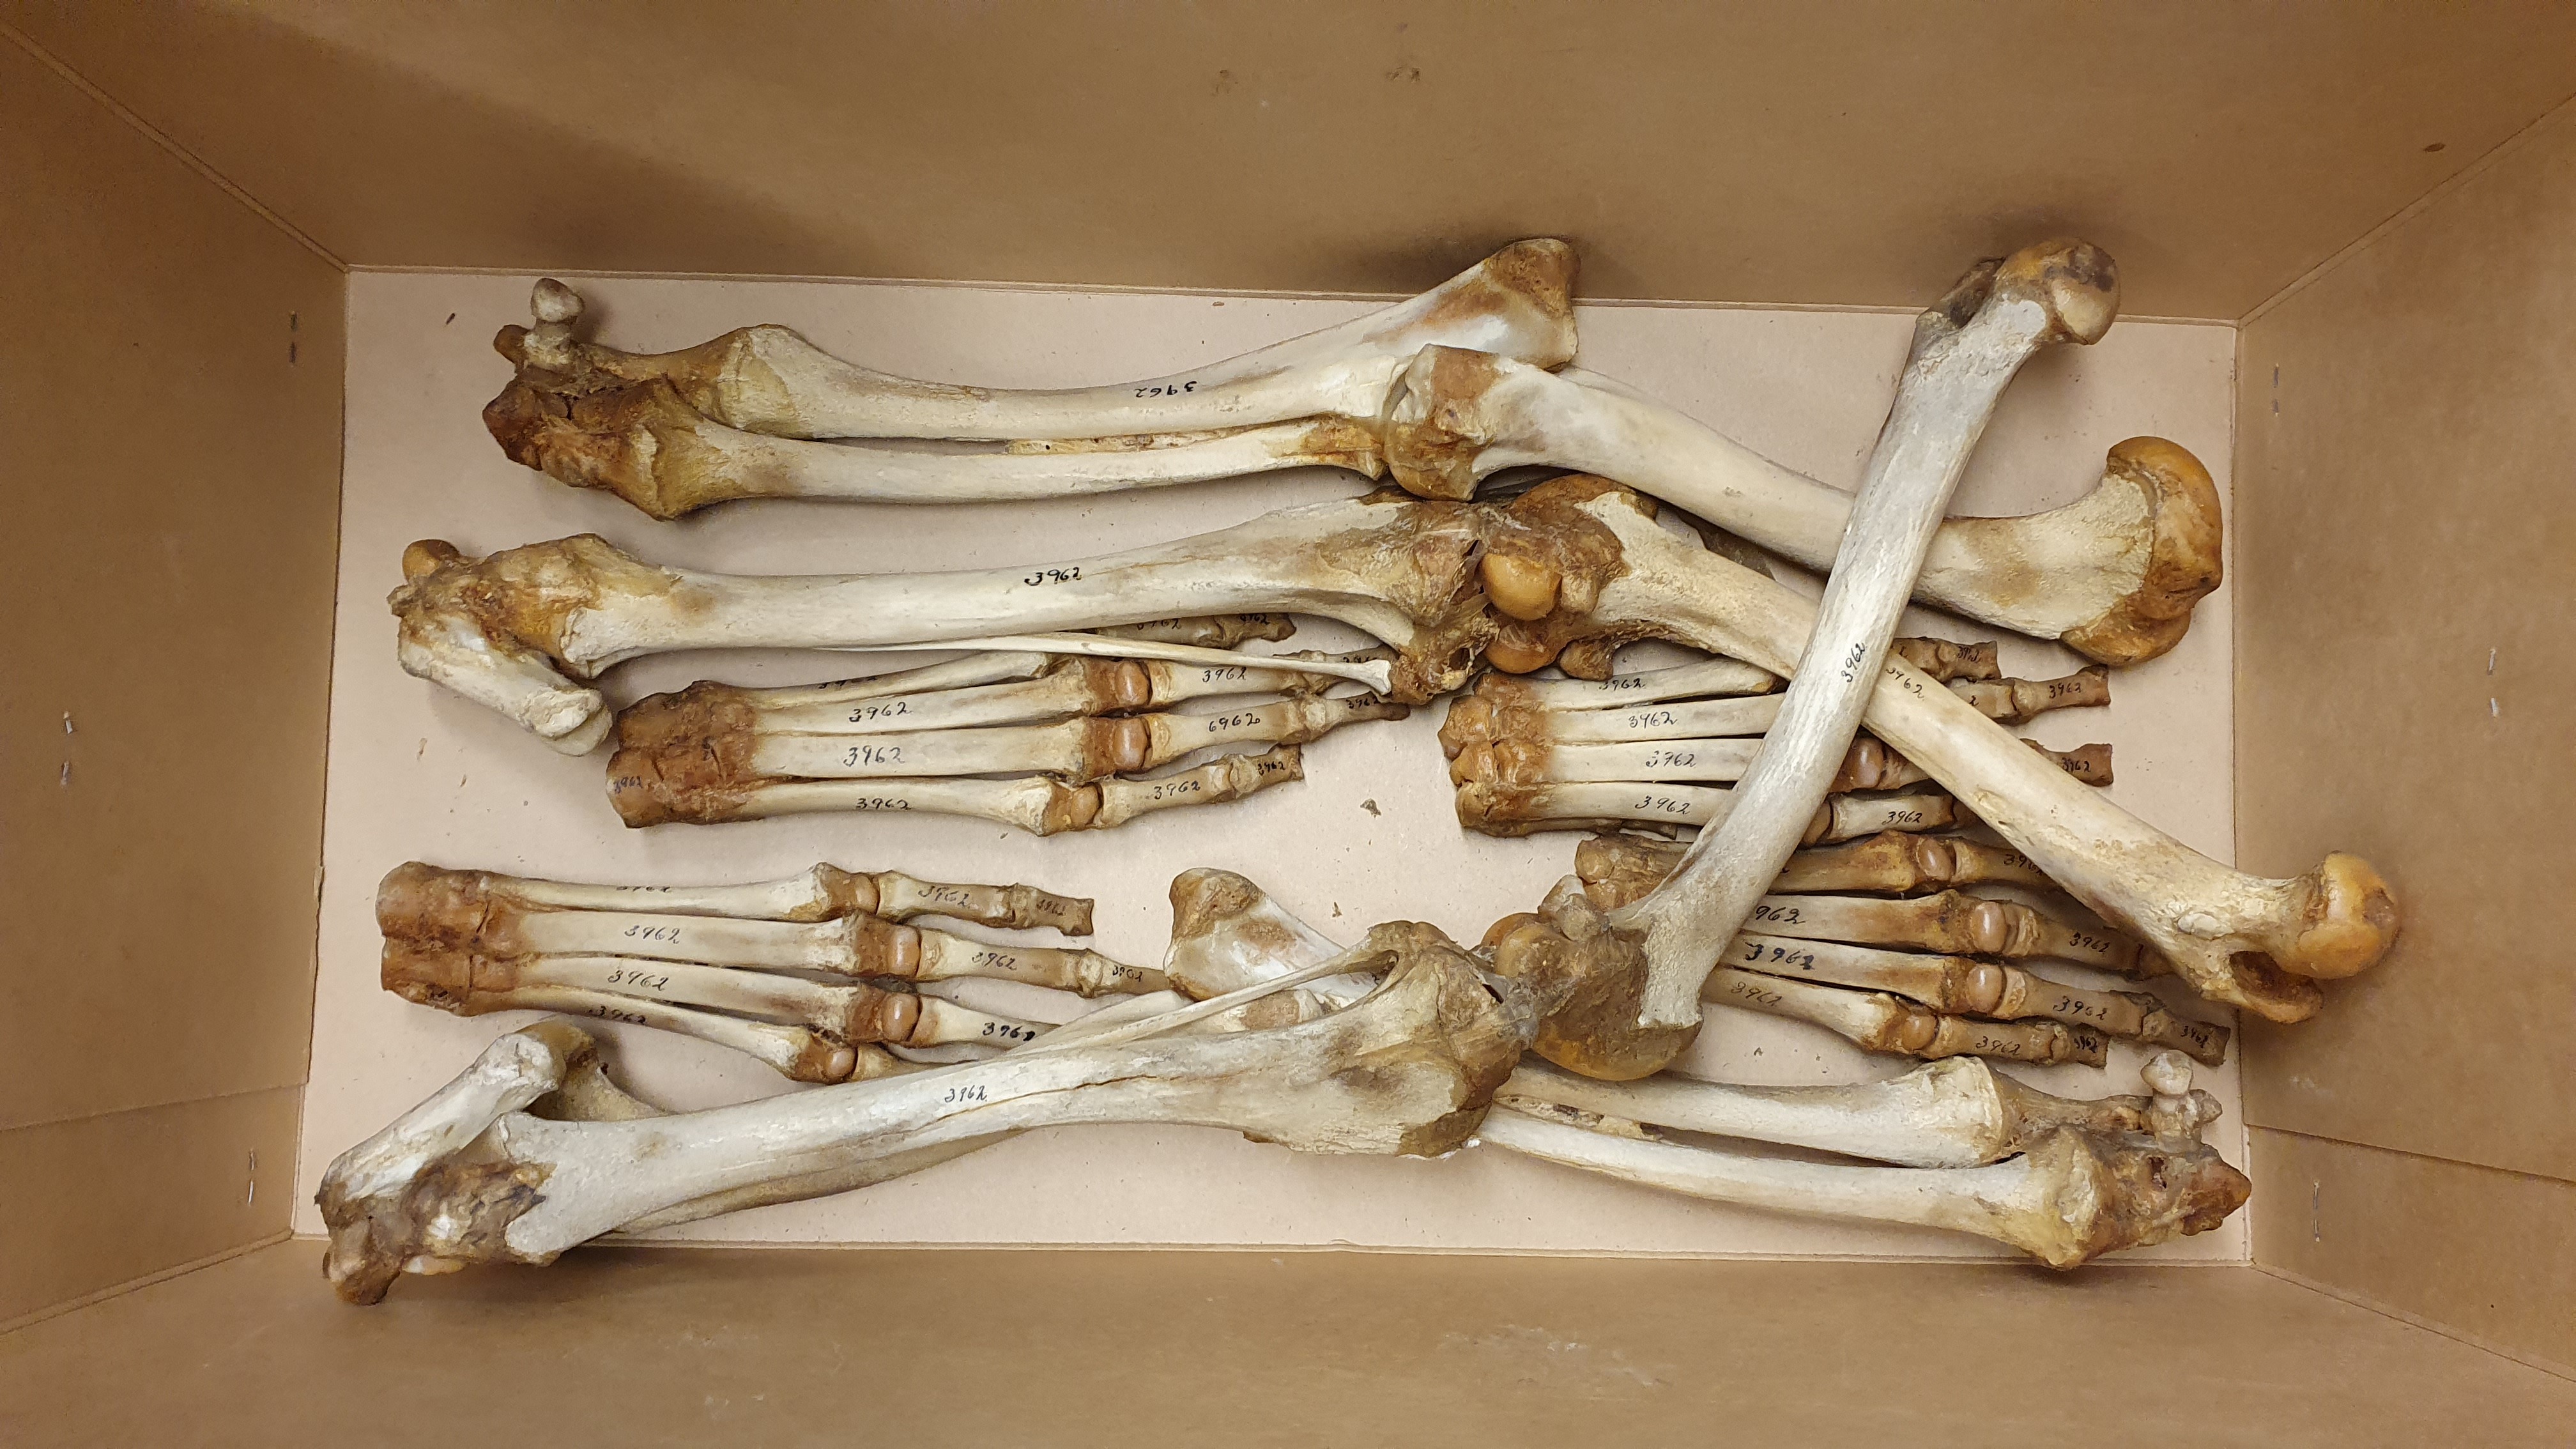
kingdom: Animalia
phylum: Chordata
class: Mammalia
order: Carnivora
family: Canidae
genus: Canis
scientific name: Canis lupus
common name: Gray wolf
